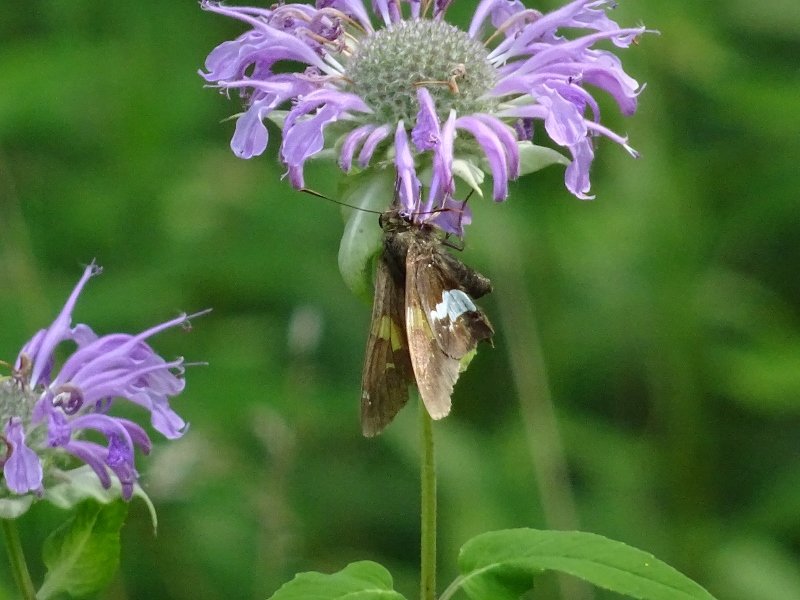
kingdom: Animalia
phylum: Arthropoda
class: Insecta
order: Lepidoptera
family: Hesperiidae
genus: Epargyreus
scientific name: Epargyreus clarus
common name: Silver-spotted Skipper
